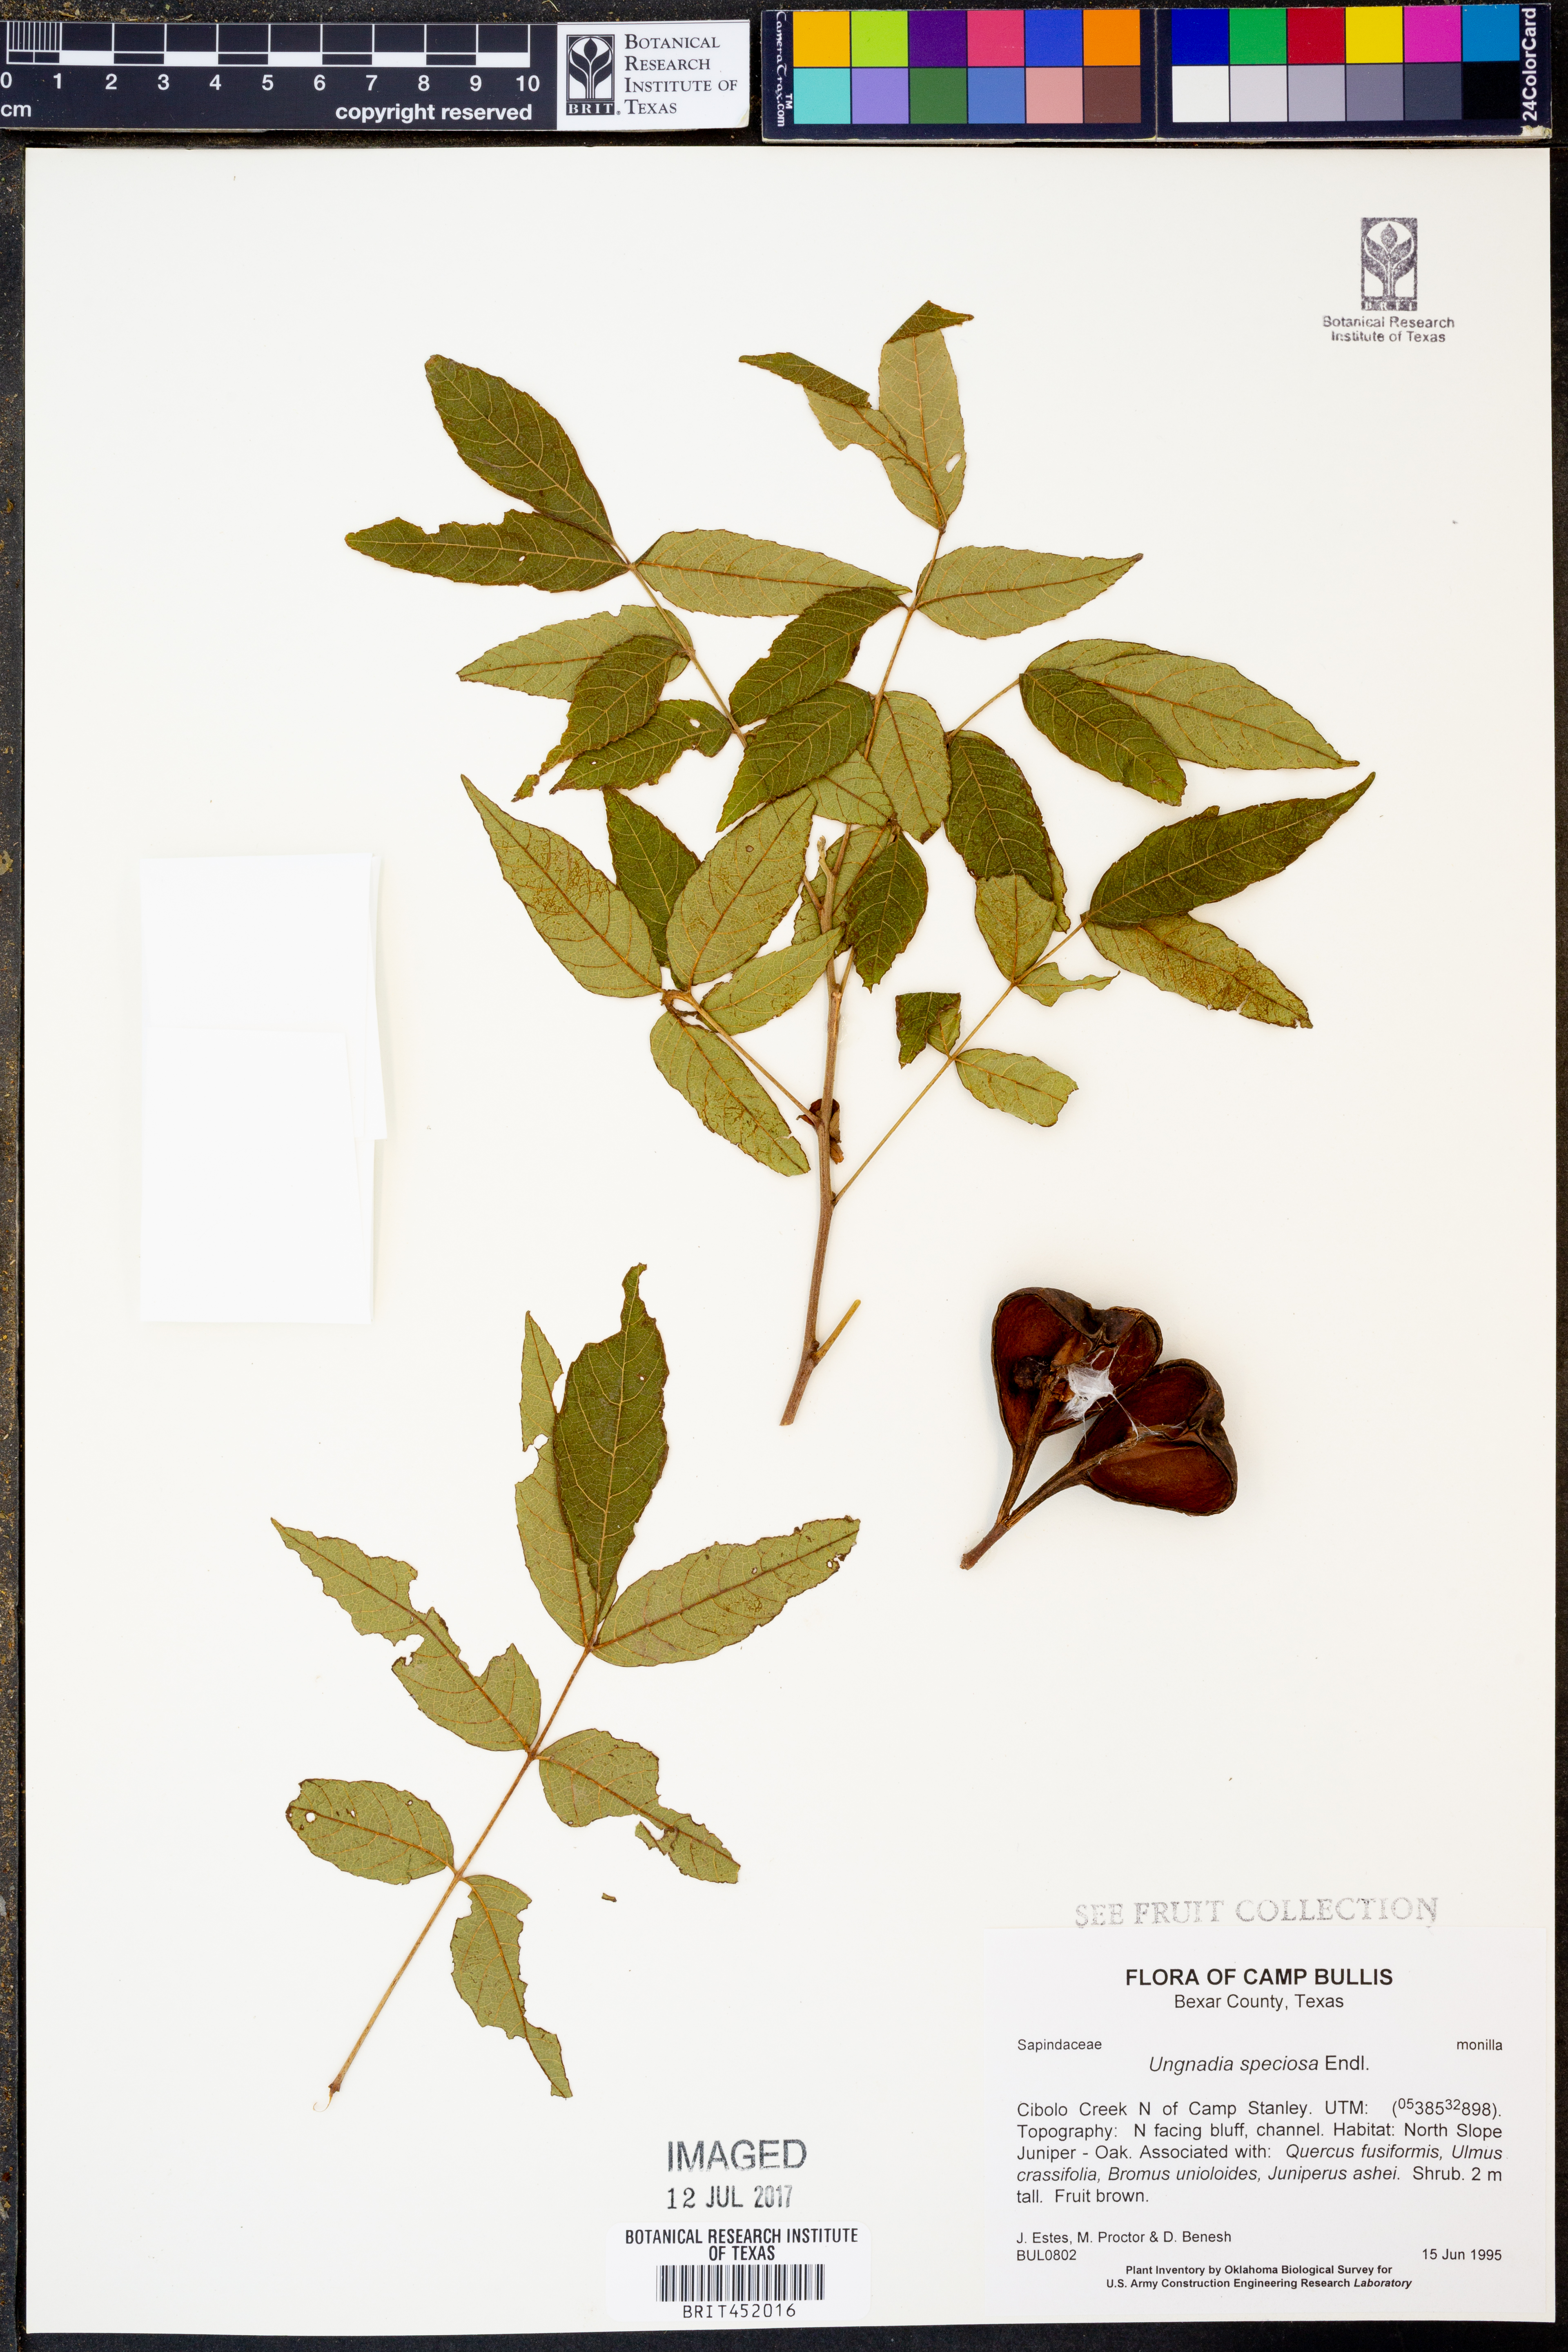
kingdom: Plantae
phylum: Tracheophyta
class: Magnoliopsida
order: Sapindales
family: Sapindaceae
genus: Ungnadia
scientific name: Ungnadia speciosa
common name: Texas-buckeye
